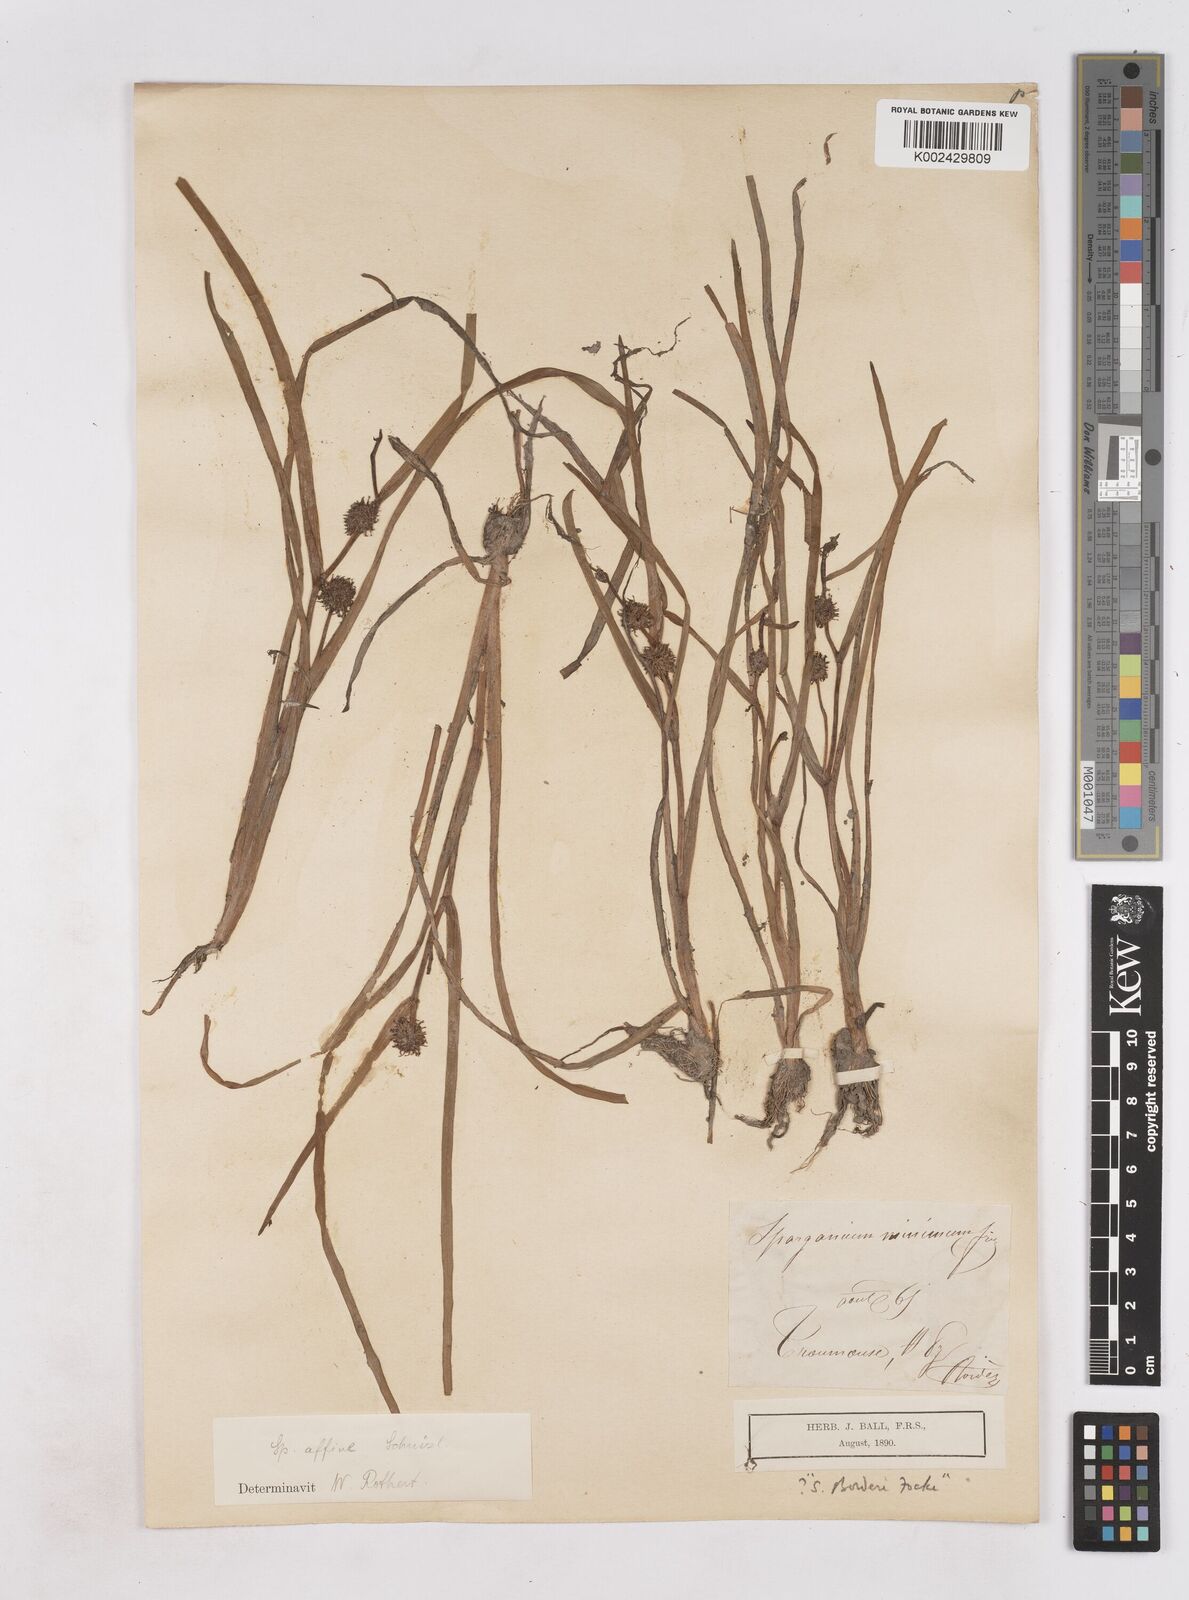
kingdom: Plantae
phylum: Tracheophyta
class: Liliopsida
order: Poales
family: Typhaceae
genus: Sparganium
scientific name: Sparganium angustifolium
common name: Floating bur-reed
